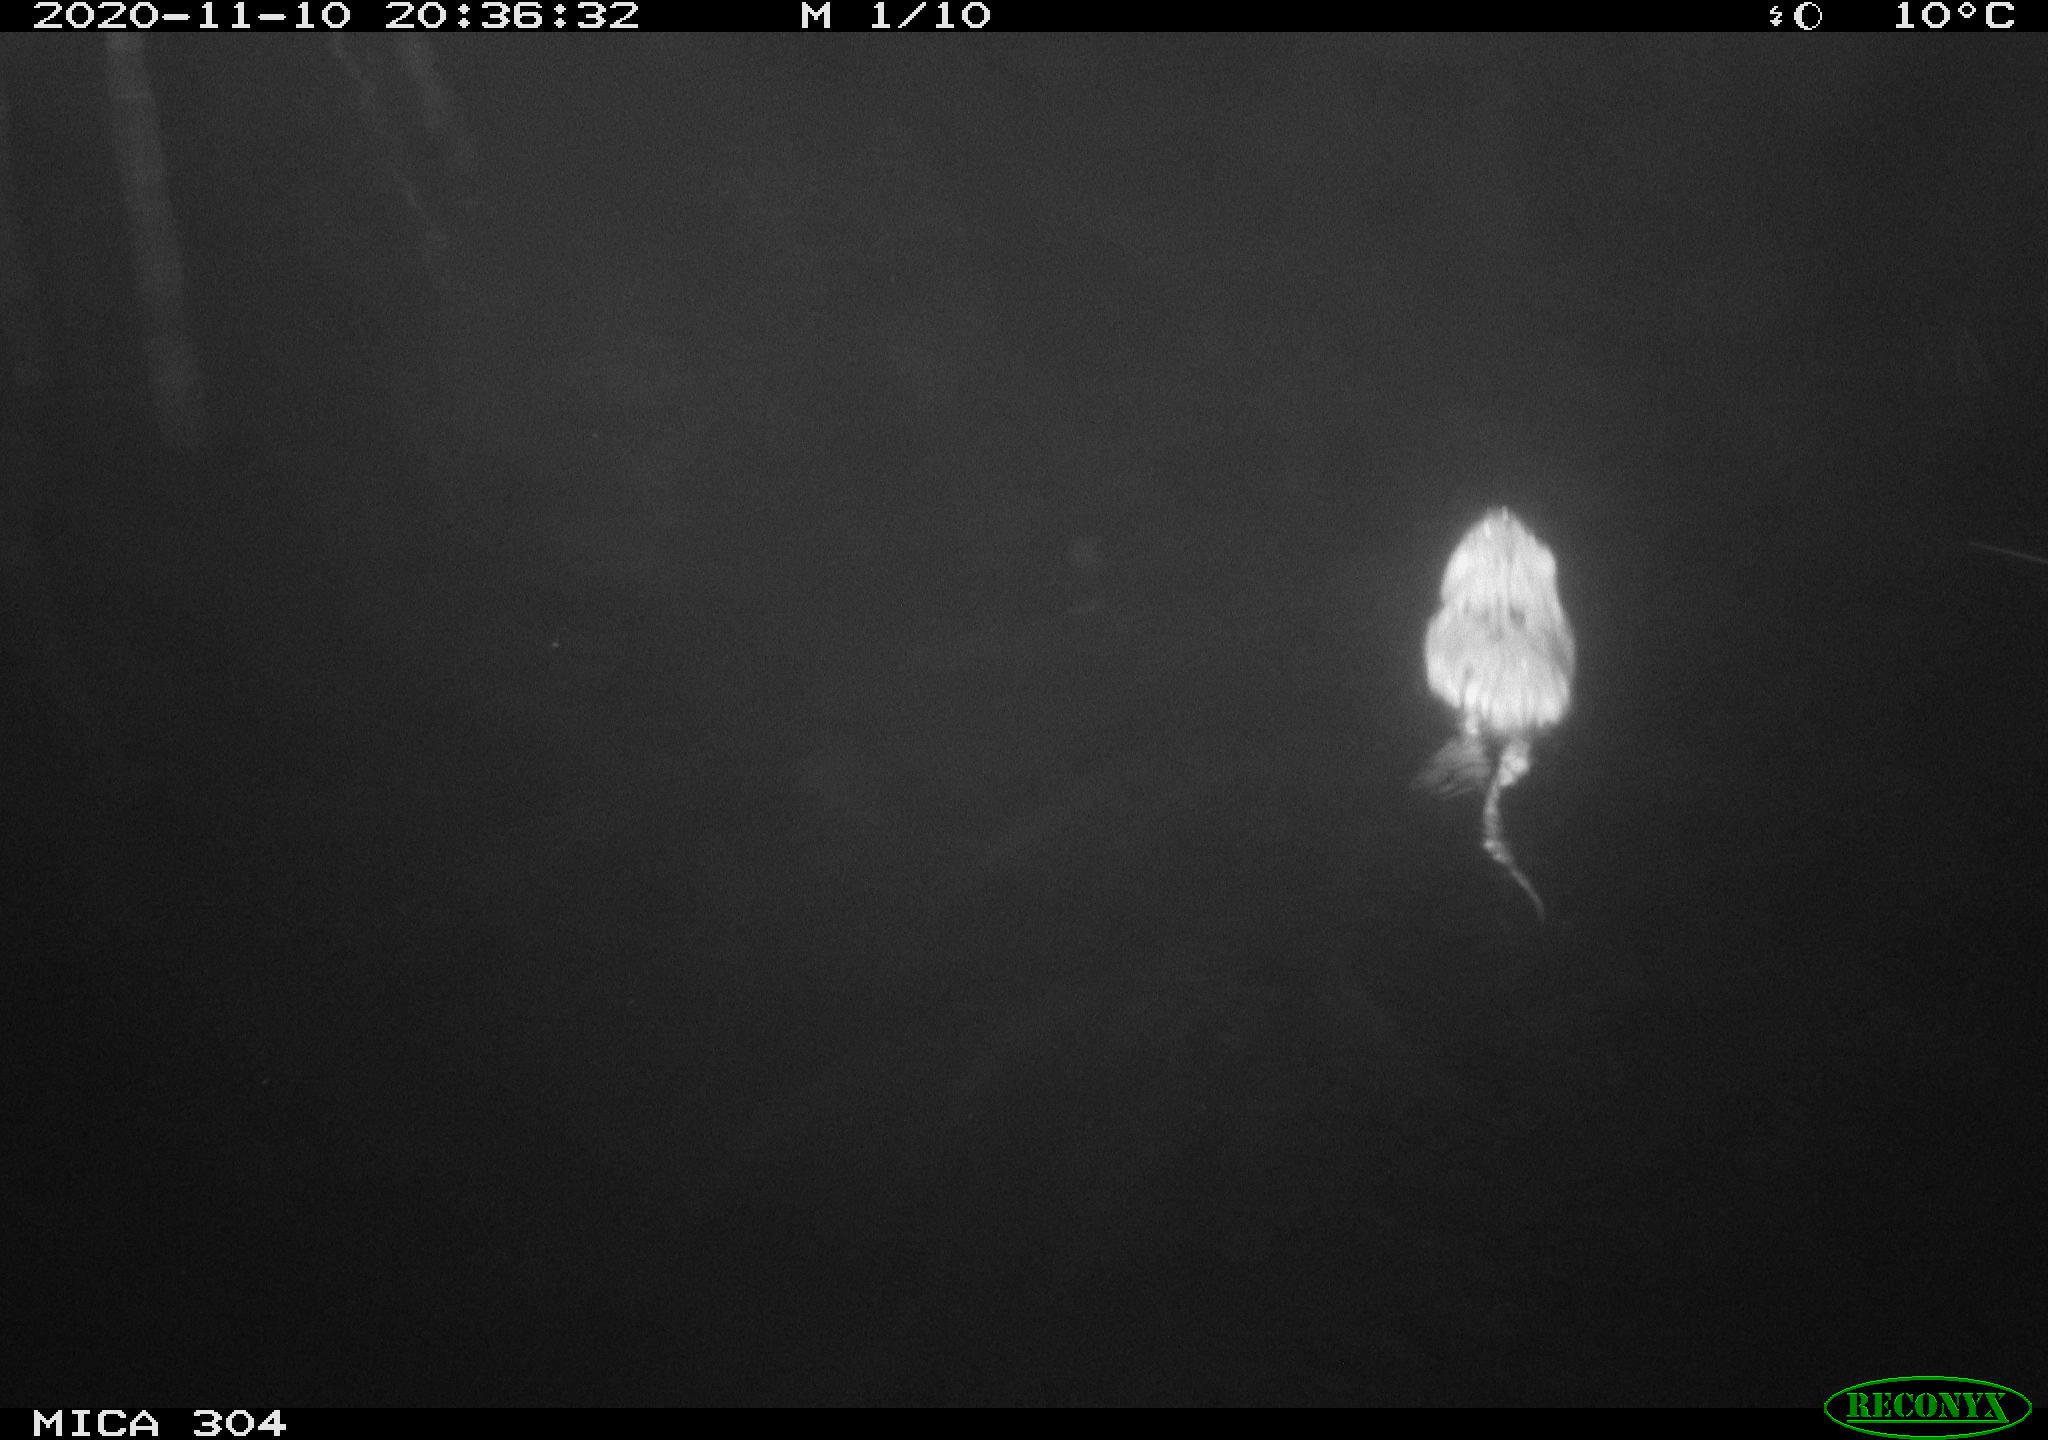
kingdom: Animalia
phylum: Chordata
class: Mammalia
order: Rodentia
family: Cricetidae
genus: Ondatra
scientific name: Ondatra zibethicus
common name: Muskrat
